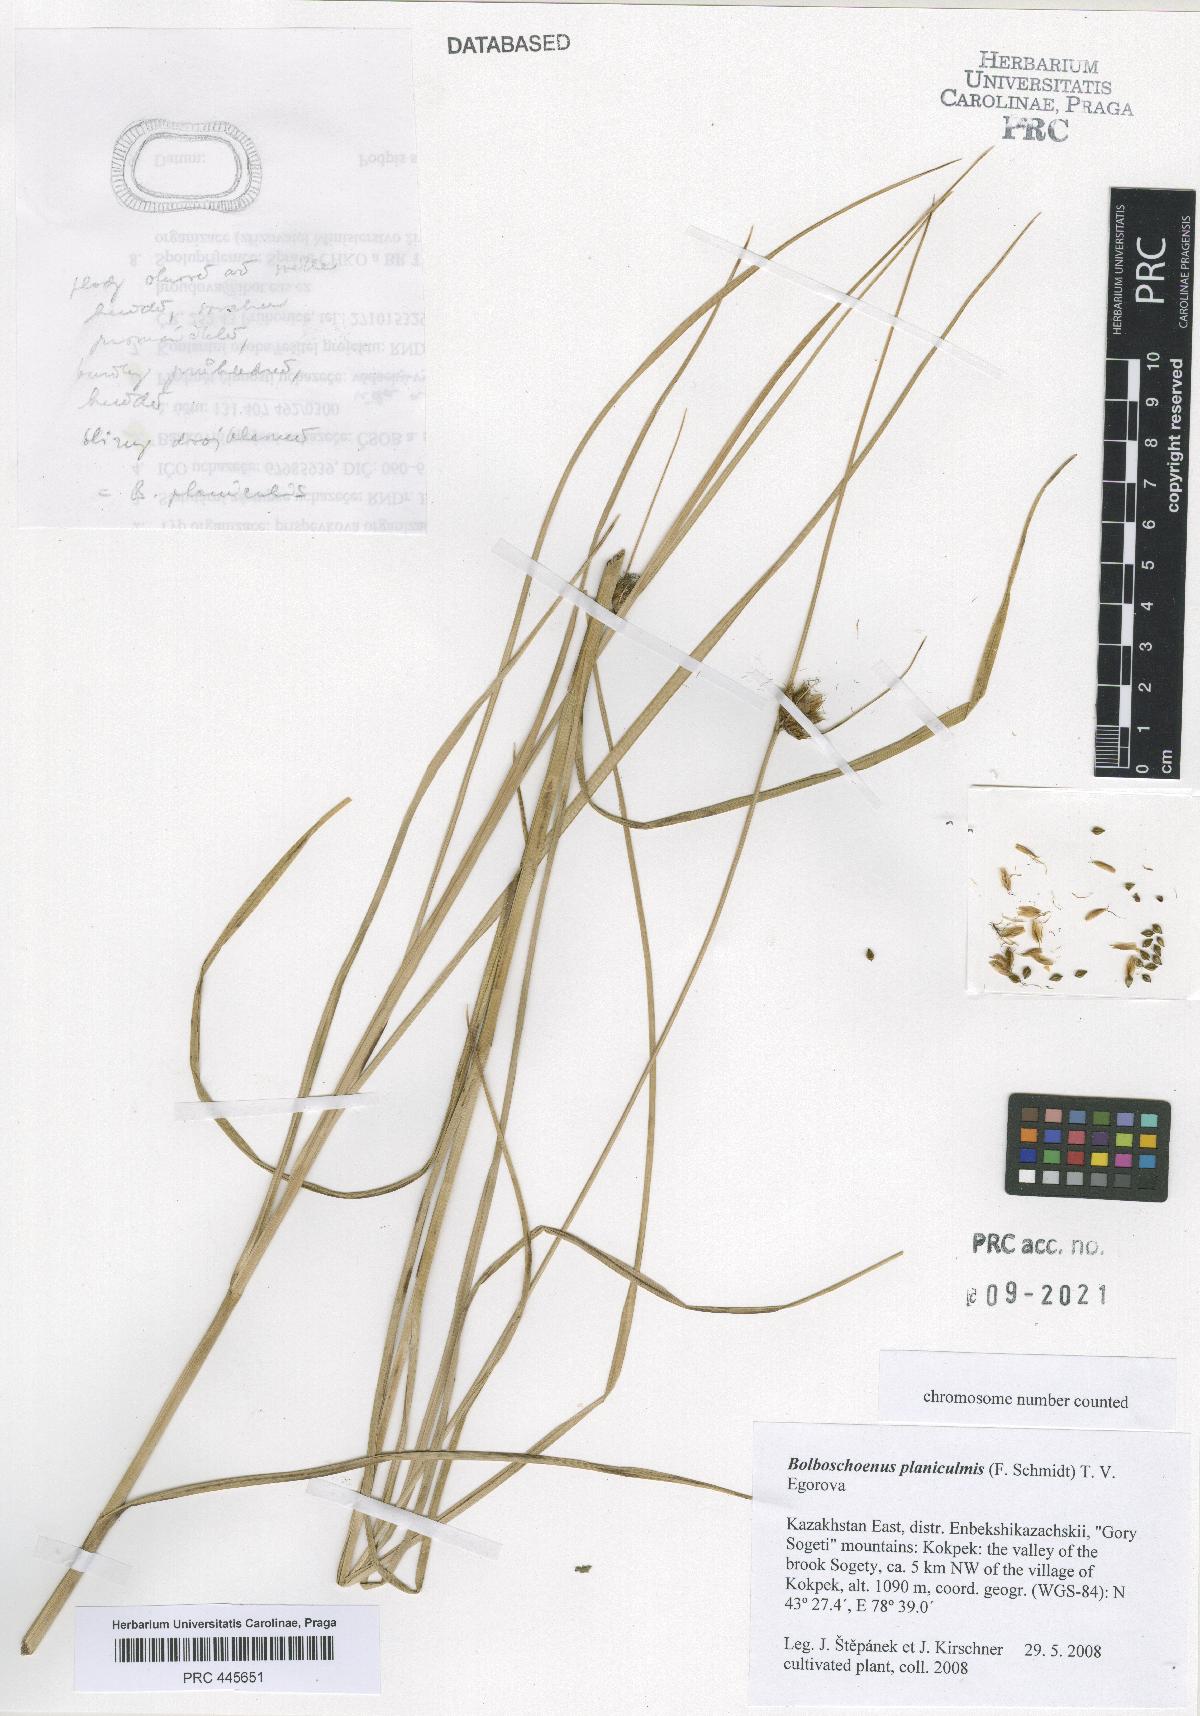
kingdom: Plantae
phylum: Tracheophyta
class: Liliopsida
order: Poales
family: Cyperaceae
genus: Bolboschoenus
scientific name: Bolboschoenus planiculmis
